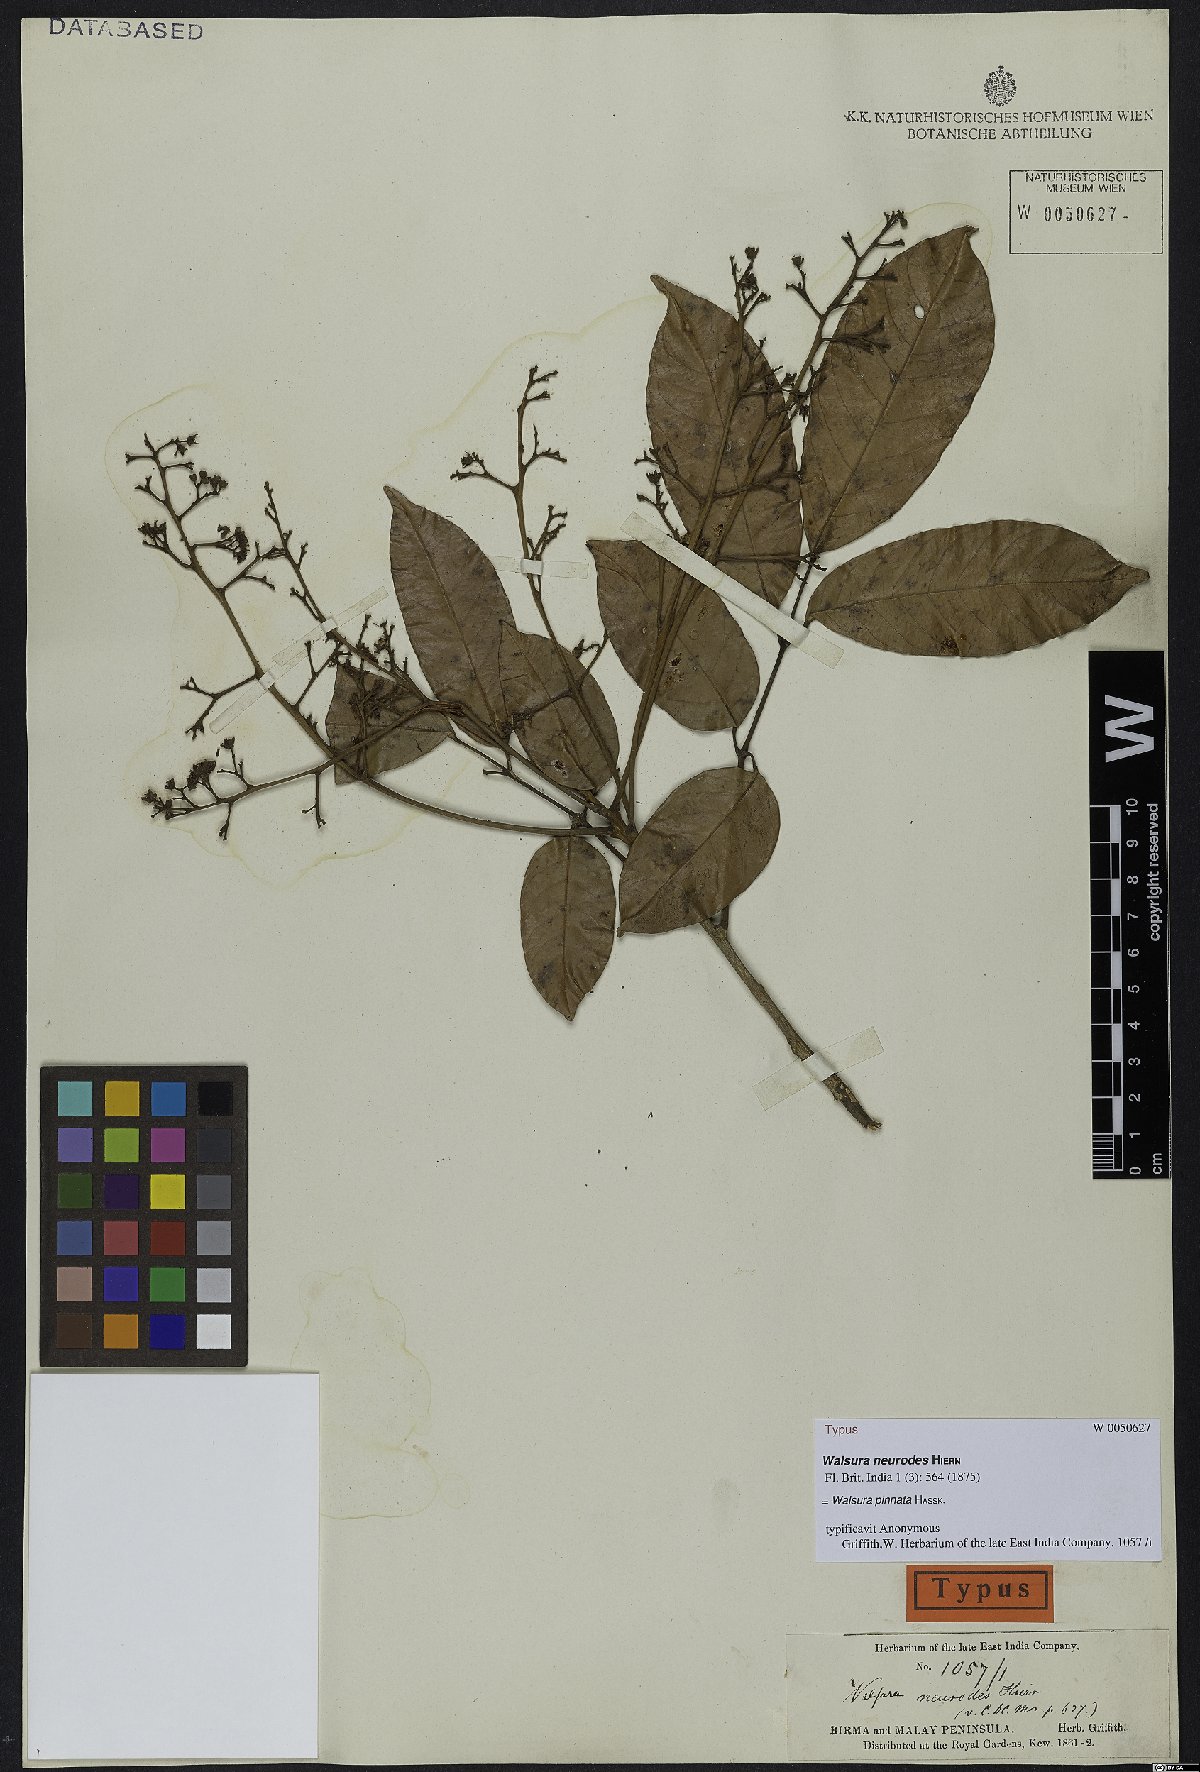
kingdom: Plantae
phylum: Tracheophyta
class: Magnoliopsida
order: Sapindales
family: Meliaceae
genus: Walsura
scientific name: Walsura pinnata
